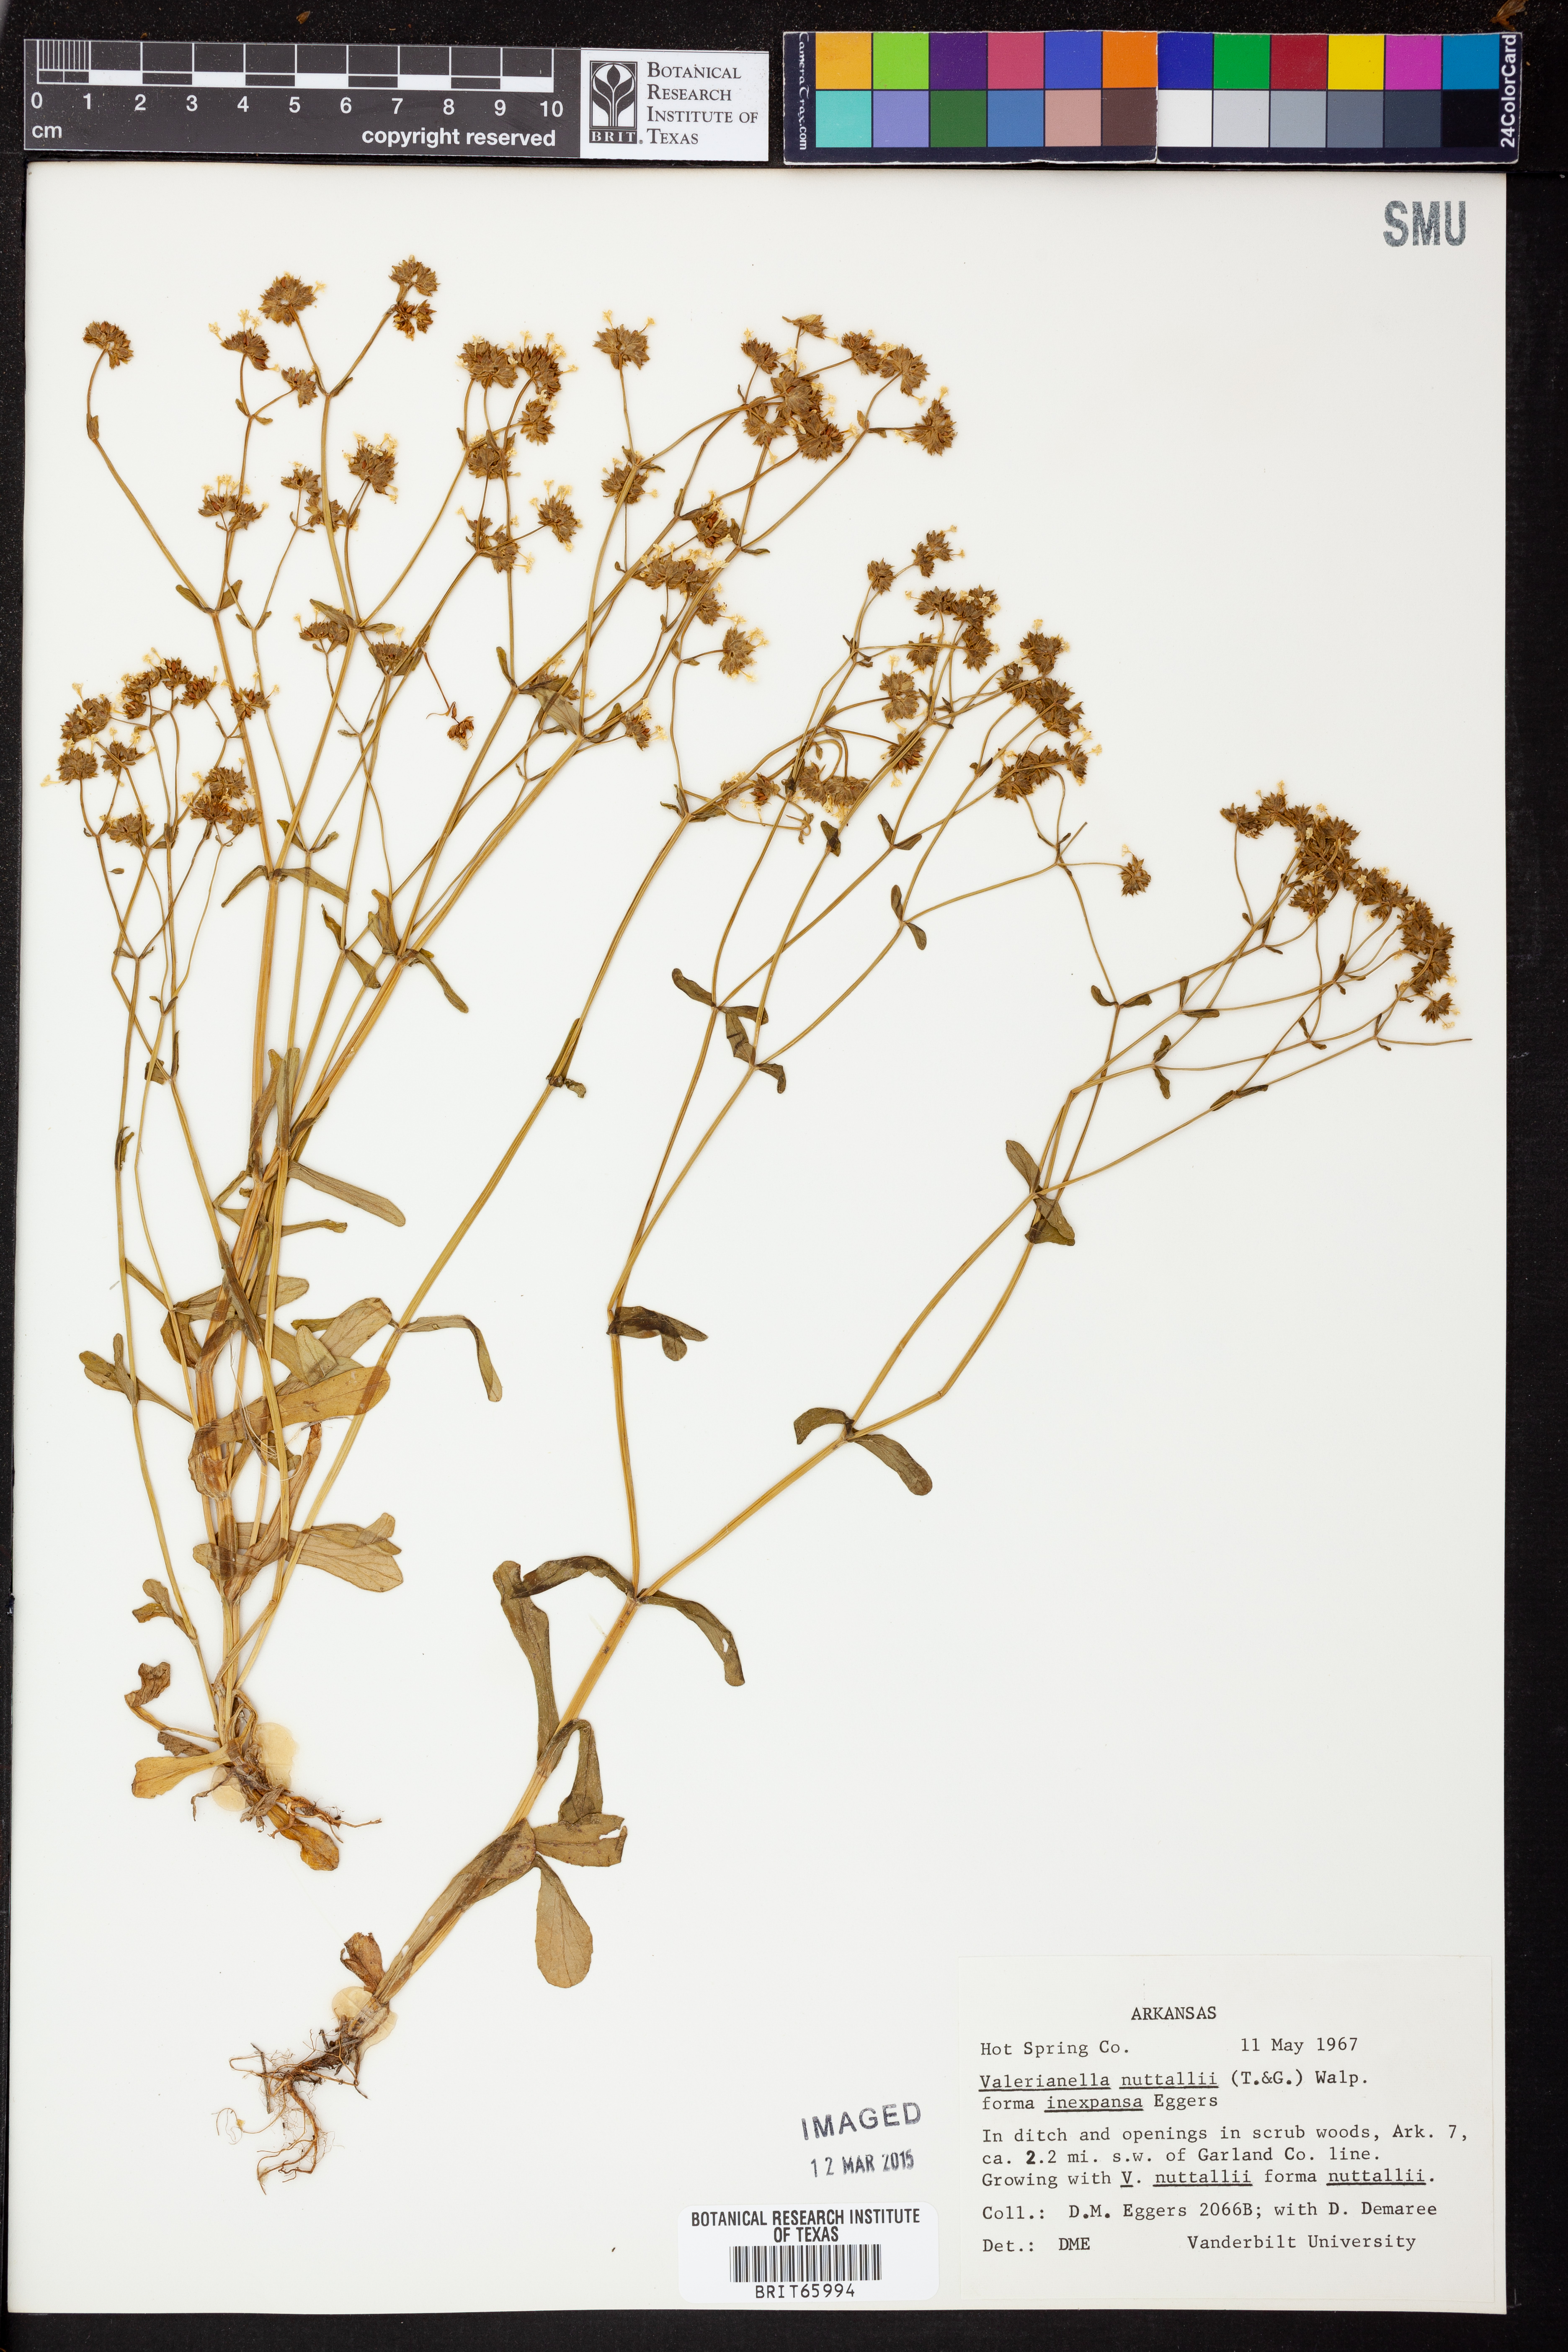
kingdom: Plantae
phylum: Tracheophyta
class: Magnoliopsida
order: Dipsacales
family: Caprifoliaceae
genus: Valerianella
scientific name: Valerianella nuttallii
